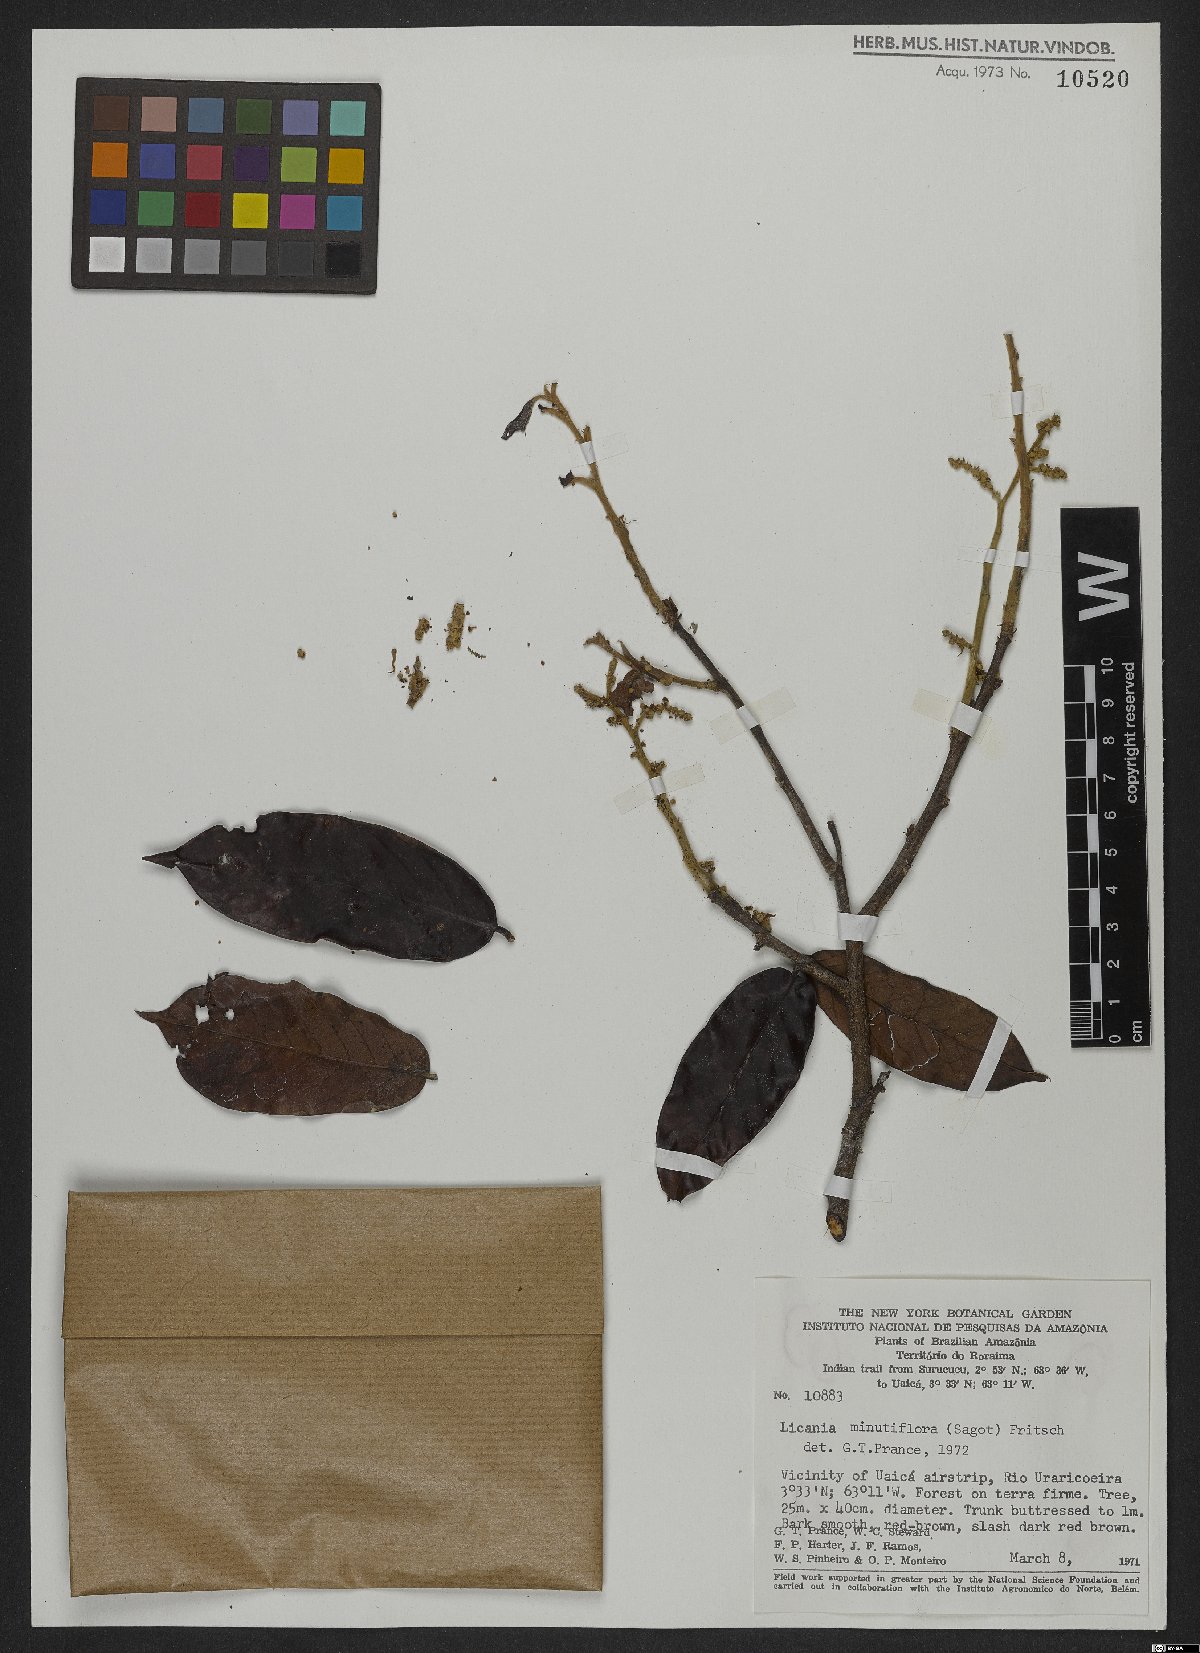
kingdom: Plantae
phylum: Tracheophyta
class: Magnoliopsida
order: Malpighiales
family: Chrysobalanaceae
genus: Moquilea
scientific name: Moquilea minutiflora
